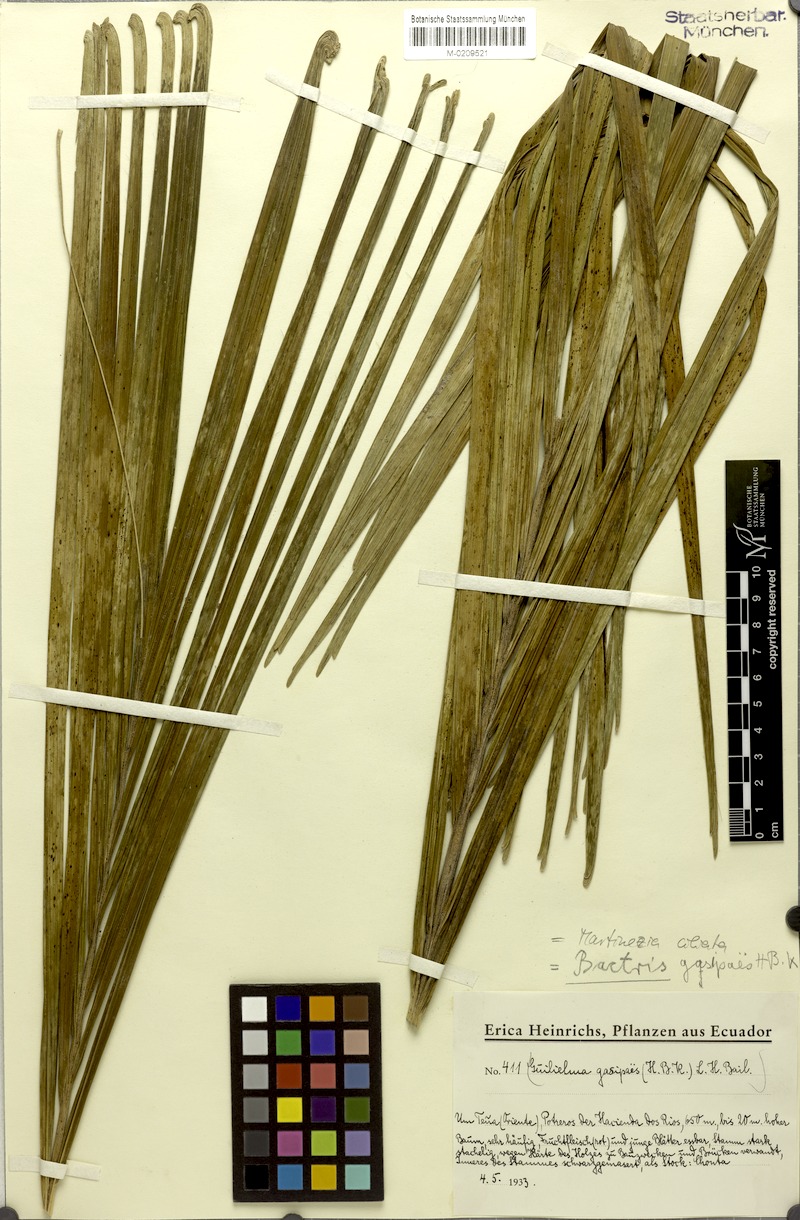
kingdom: Plantae
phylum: Tracheophyta
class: Liliopsida
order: Arecales
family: Arecaceae
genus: Bactris
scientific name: Bactris gasipaes
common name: Peach palm
